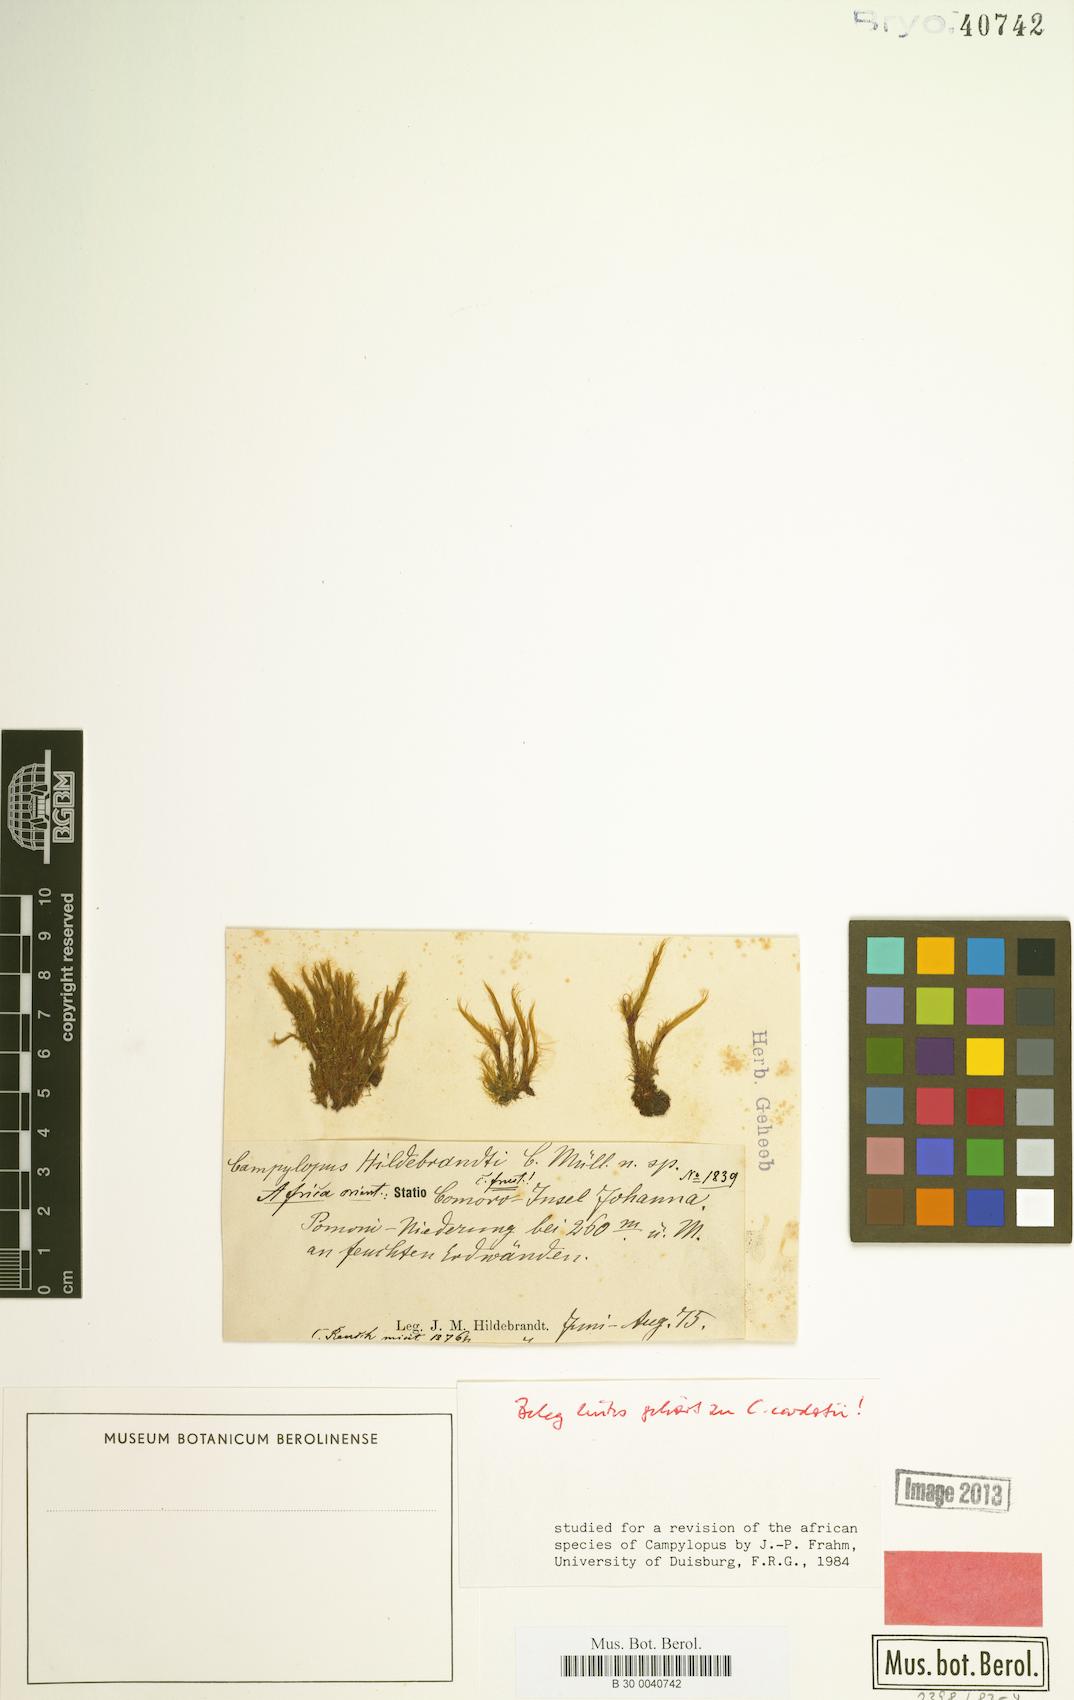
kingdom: Plantae
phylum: Bryophyta
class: Bryopsida
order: Dicranales
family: Leucobryaceae
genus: Campylopus
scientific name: Campylopus hildebrandtii
